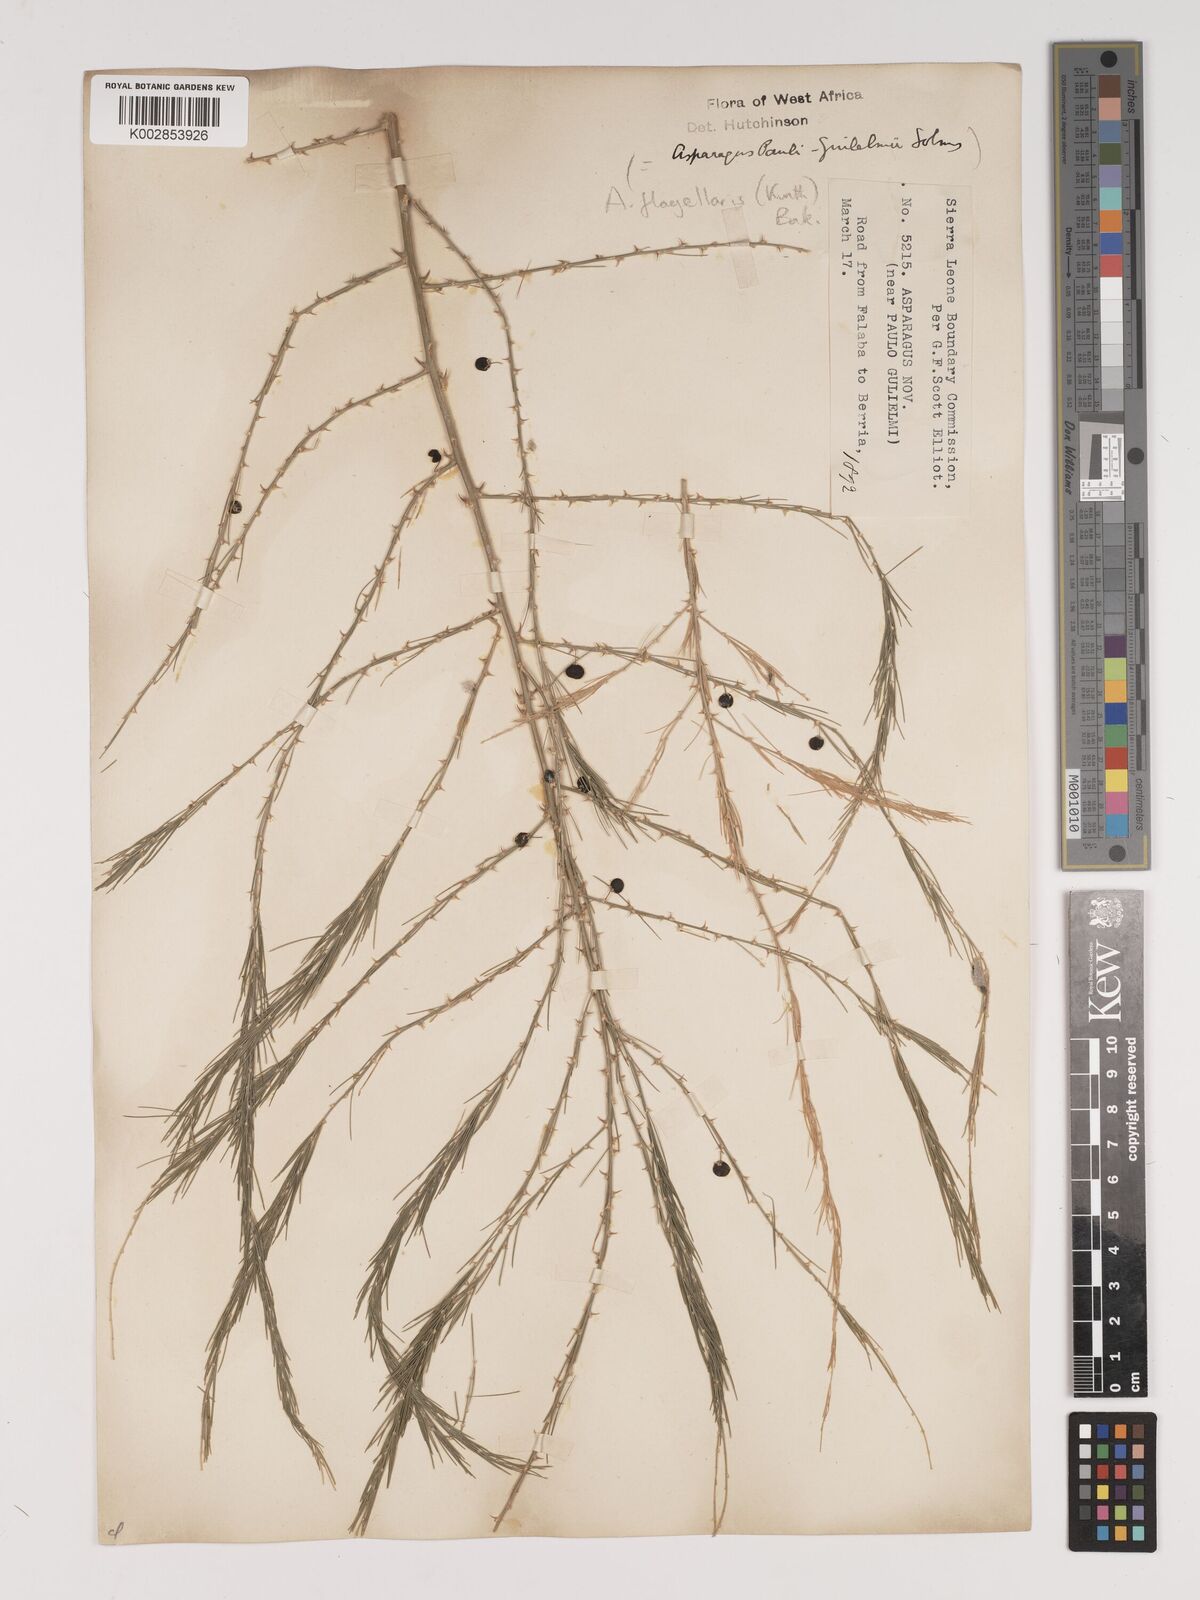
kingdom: Plantae
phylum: Tracheophyta
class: Liliopsida
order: Asparagales
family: Asparagaceae
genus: Asparagus
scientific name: Asparagus flagellaris
